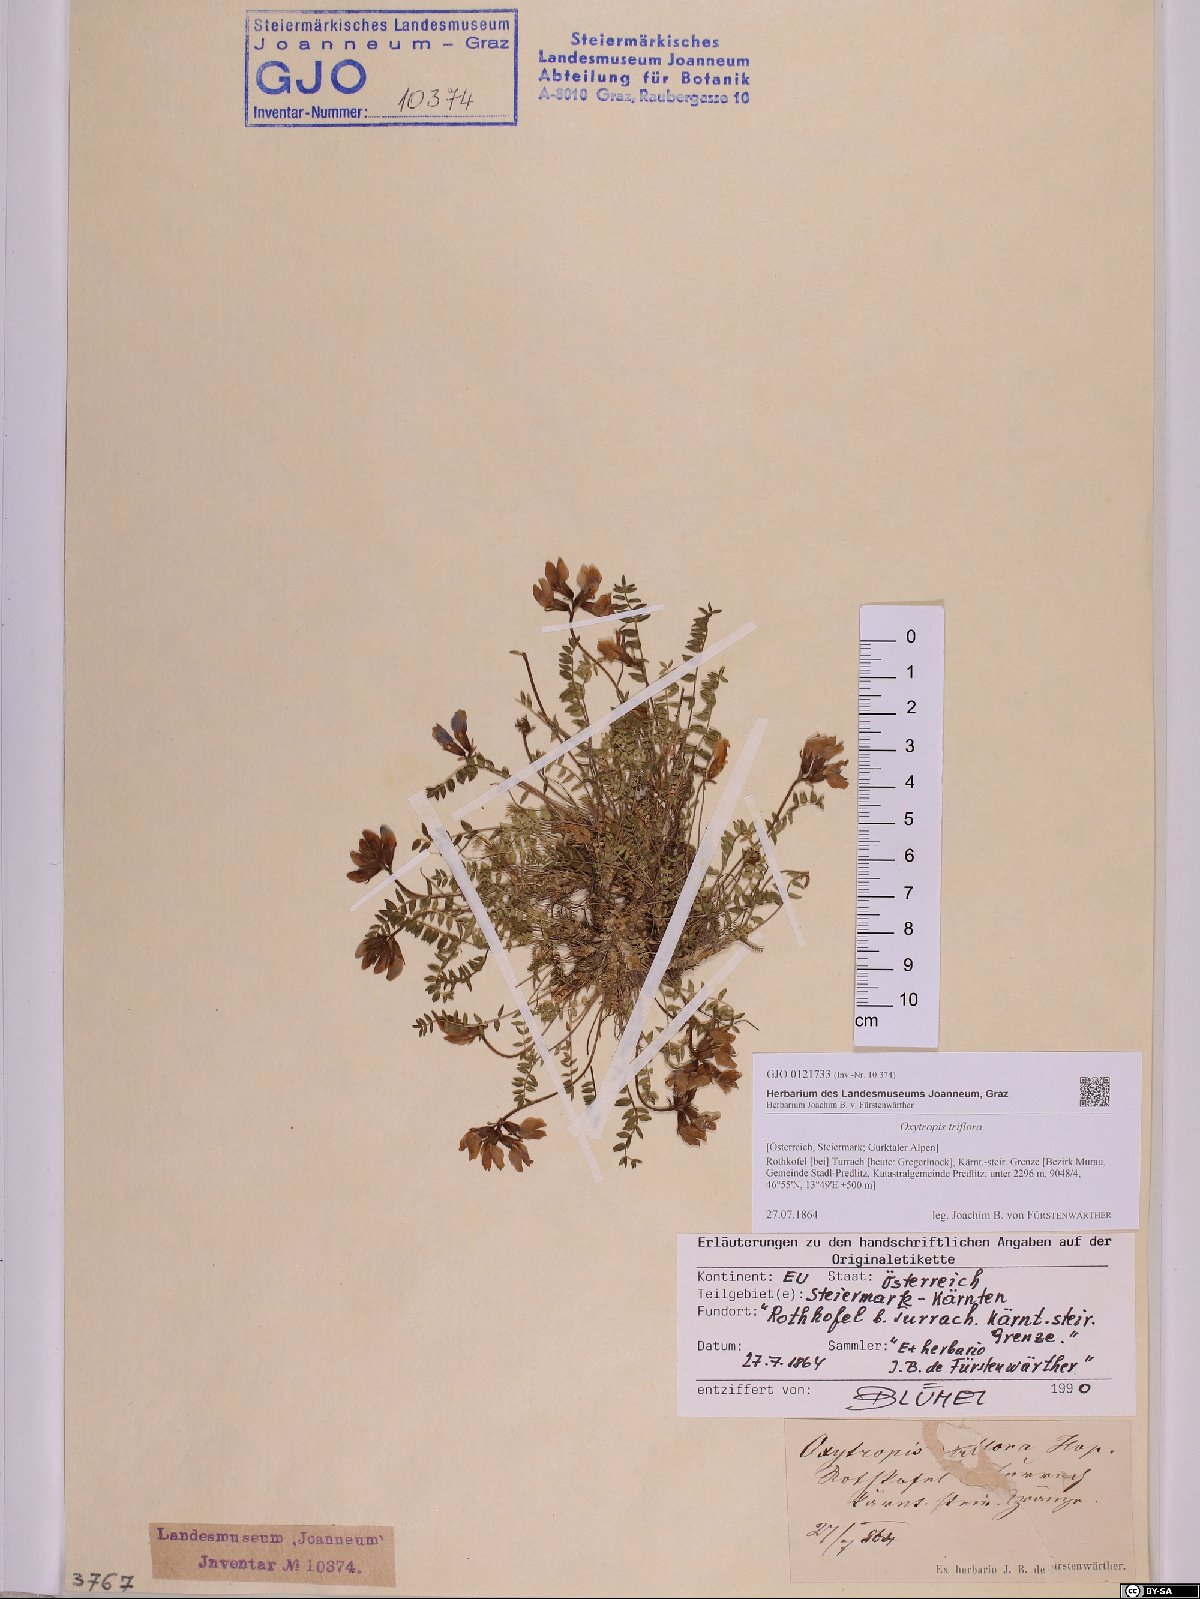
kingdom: Plantae
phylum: Tracheophyta
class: Magnoliopsida
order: Fabales
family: Fabaceae
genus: Oxytropis
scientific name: Oxytropis triflora
